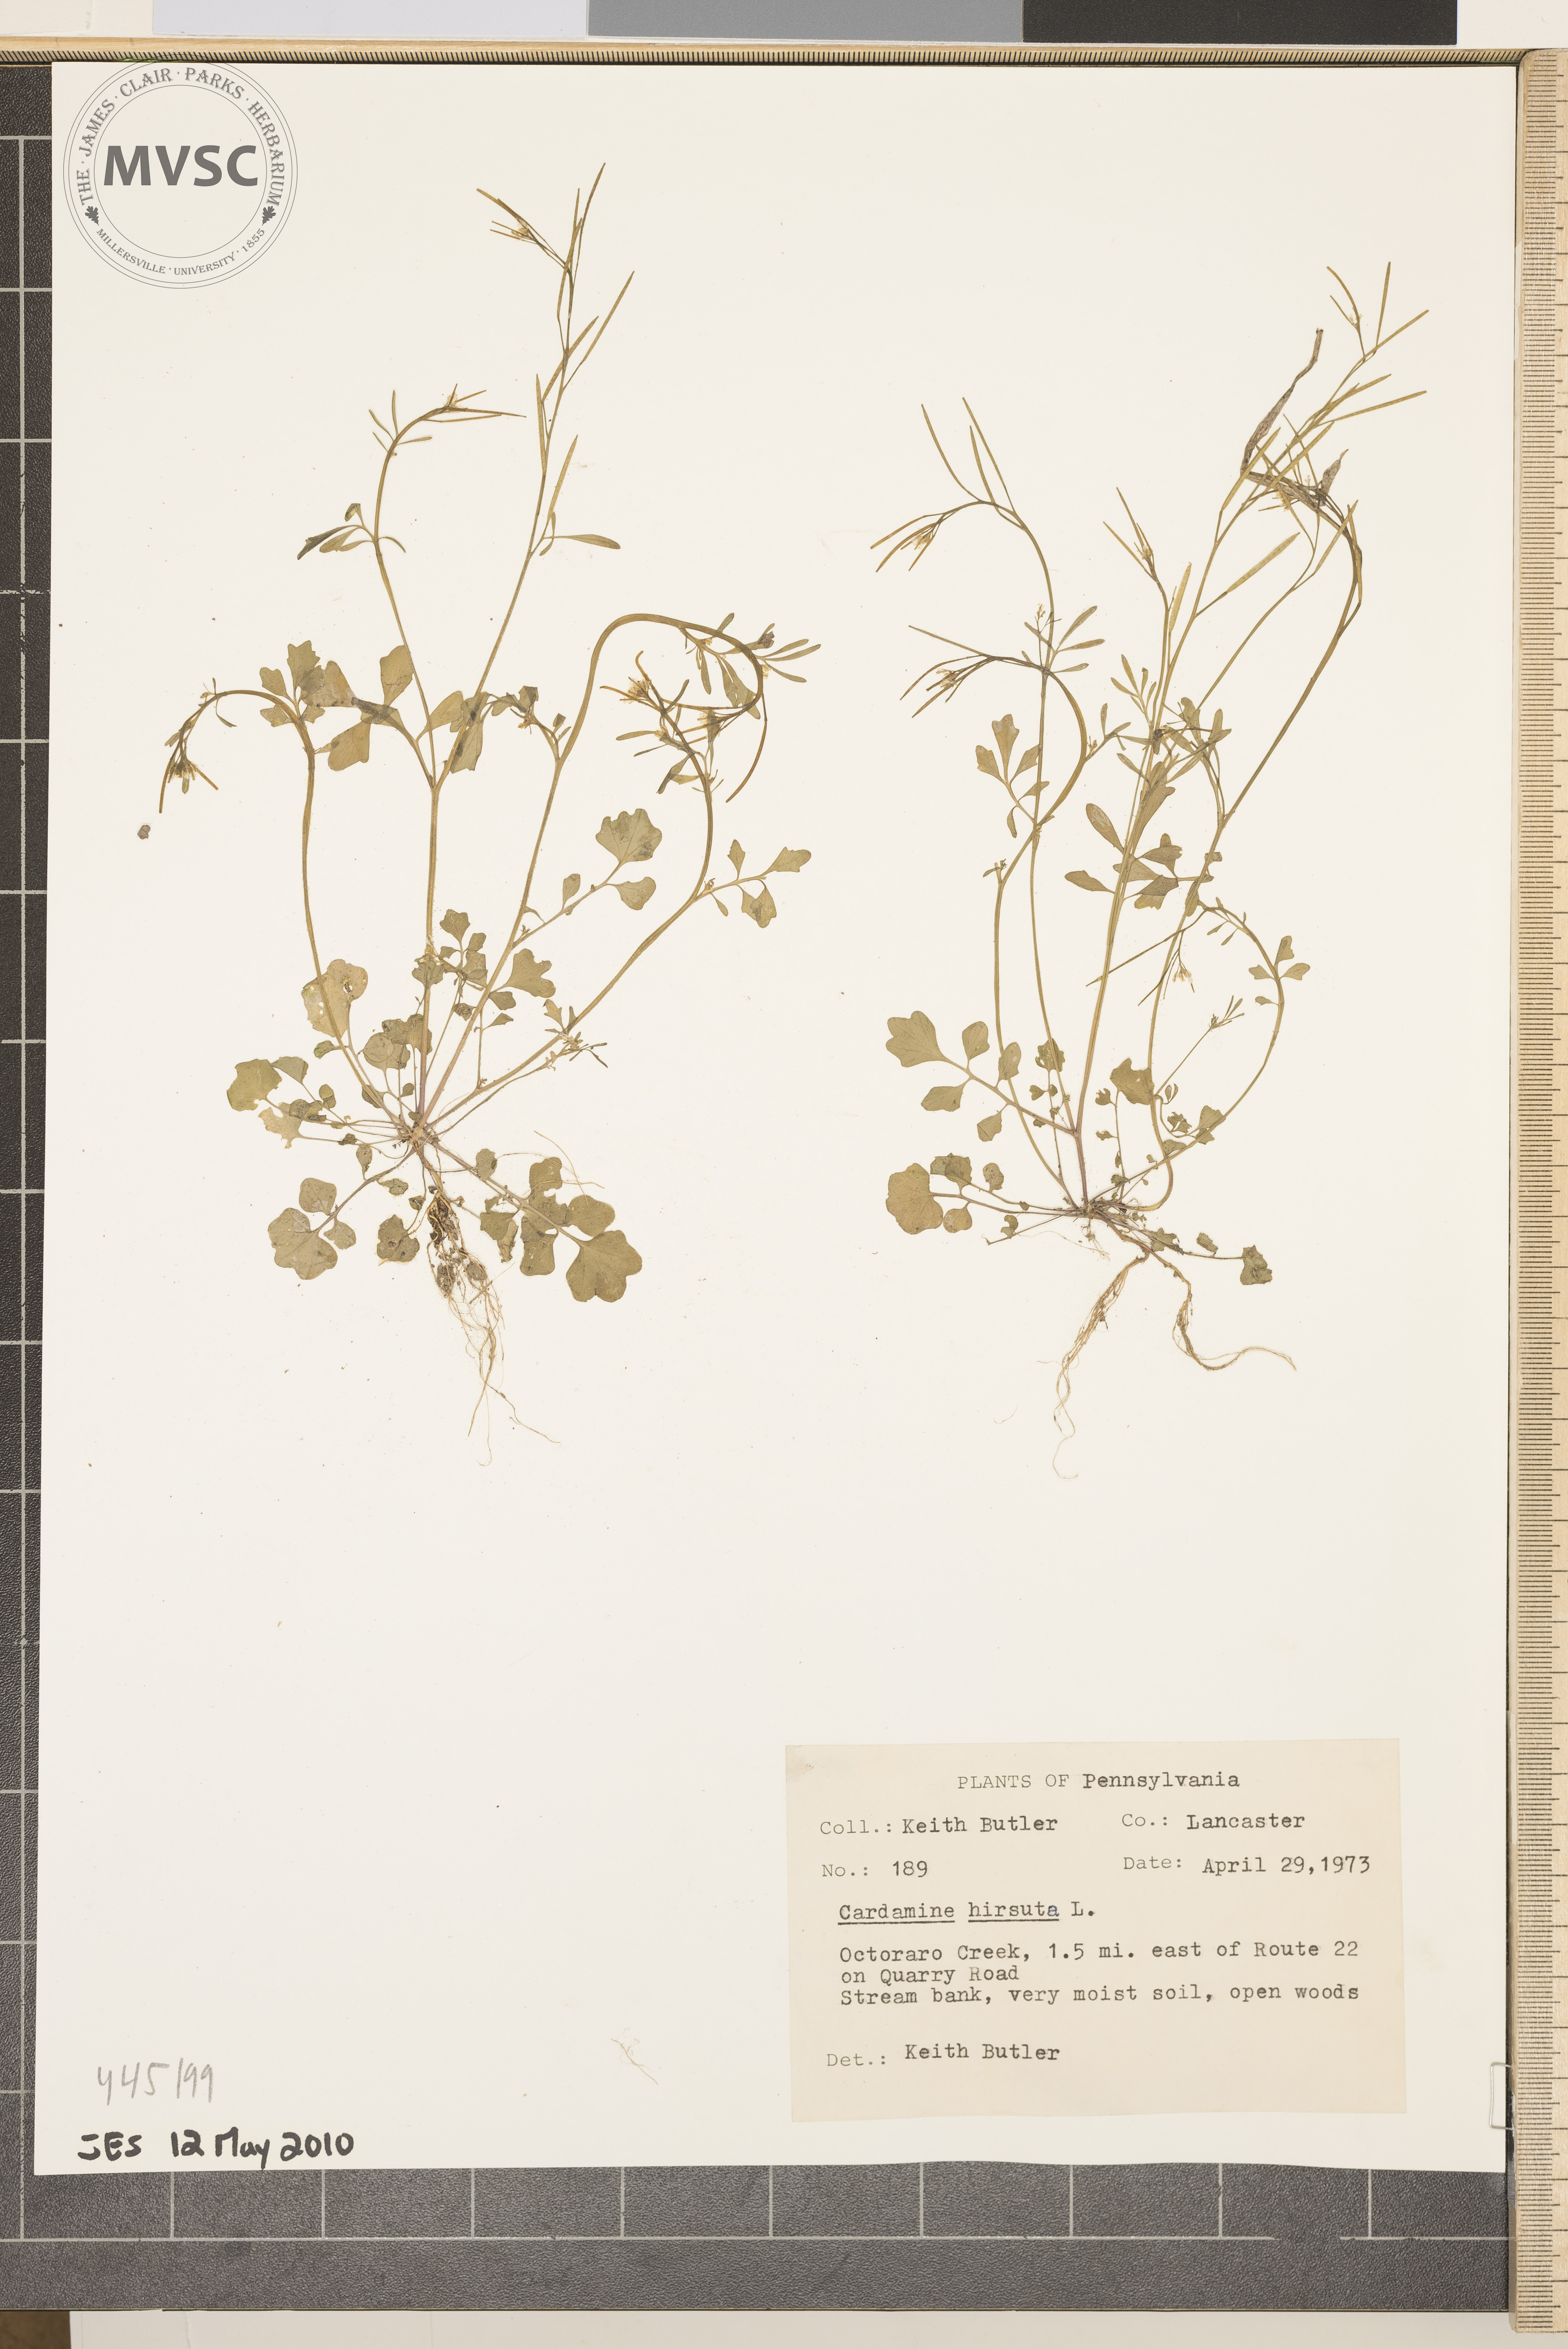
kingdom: Plantae
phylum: Tracheophyta
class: Magnoliopsida
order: Brassicales
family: Brassicaceae
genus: Cardamine
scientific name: Cardamine hirsuta
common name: Hairy bittercress
